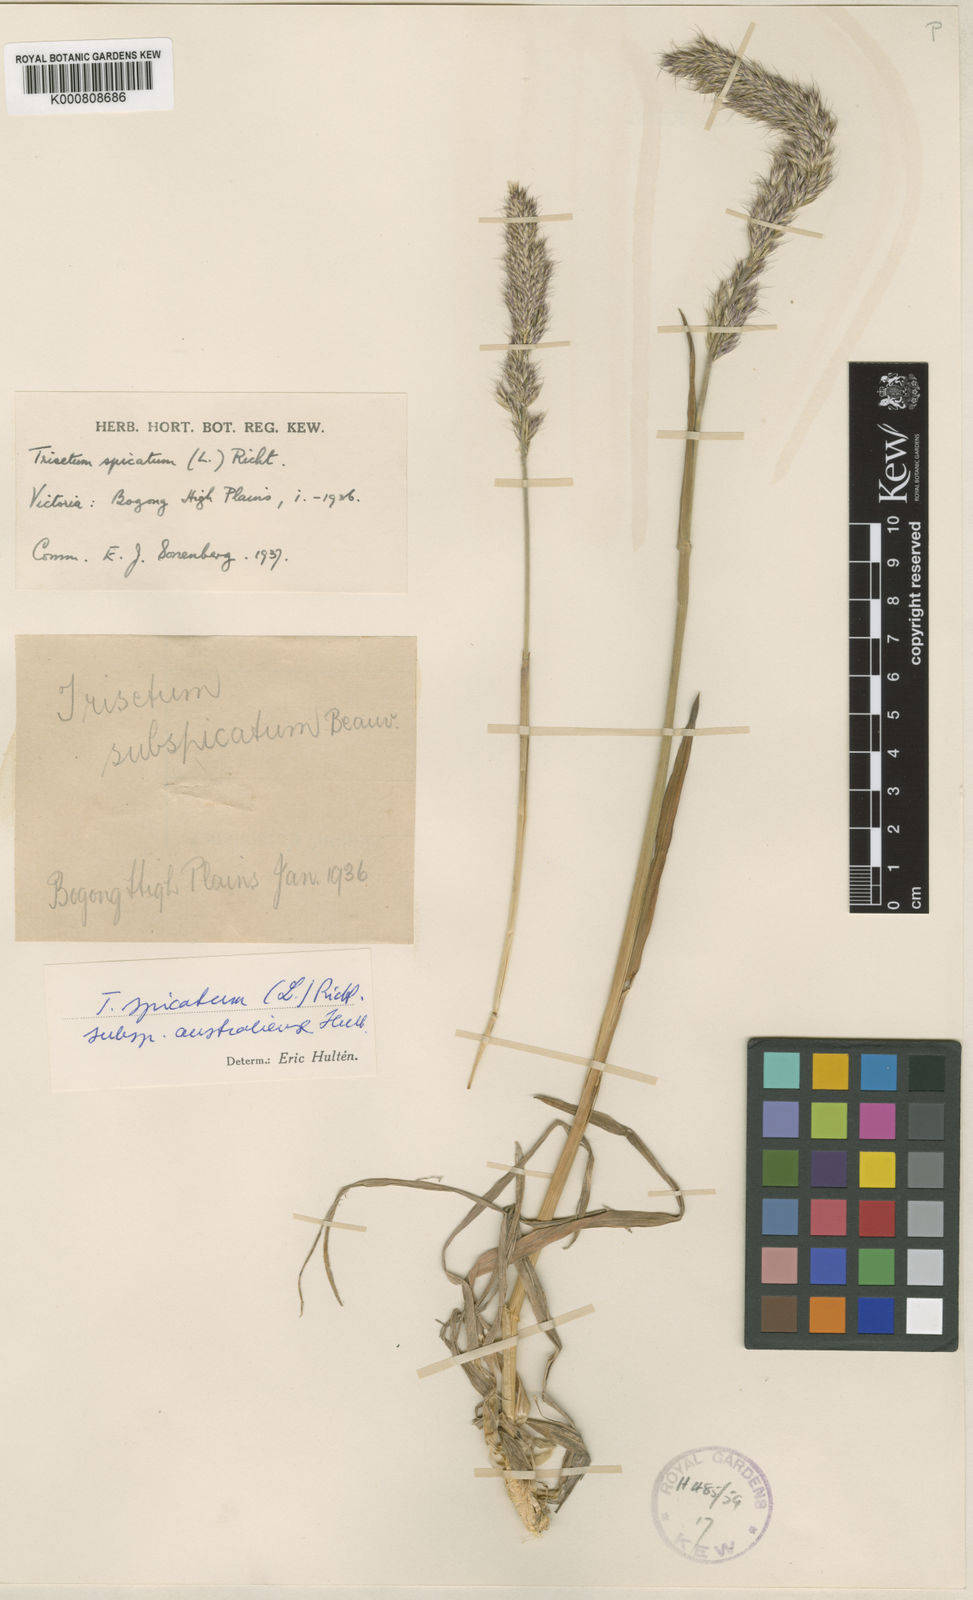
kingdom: Plantae
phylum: Tracheophyta
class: Liliopsida
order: Poales
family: Poaceae
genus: Koeleria
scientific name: Koeleria spicata
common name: Mountain trisetum
